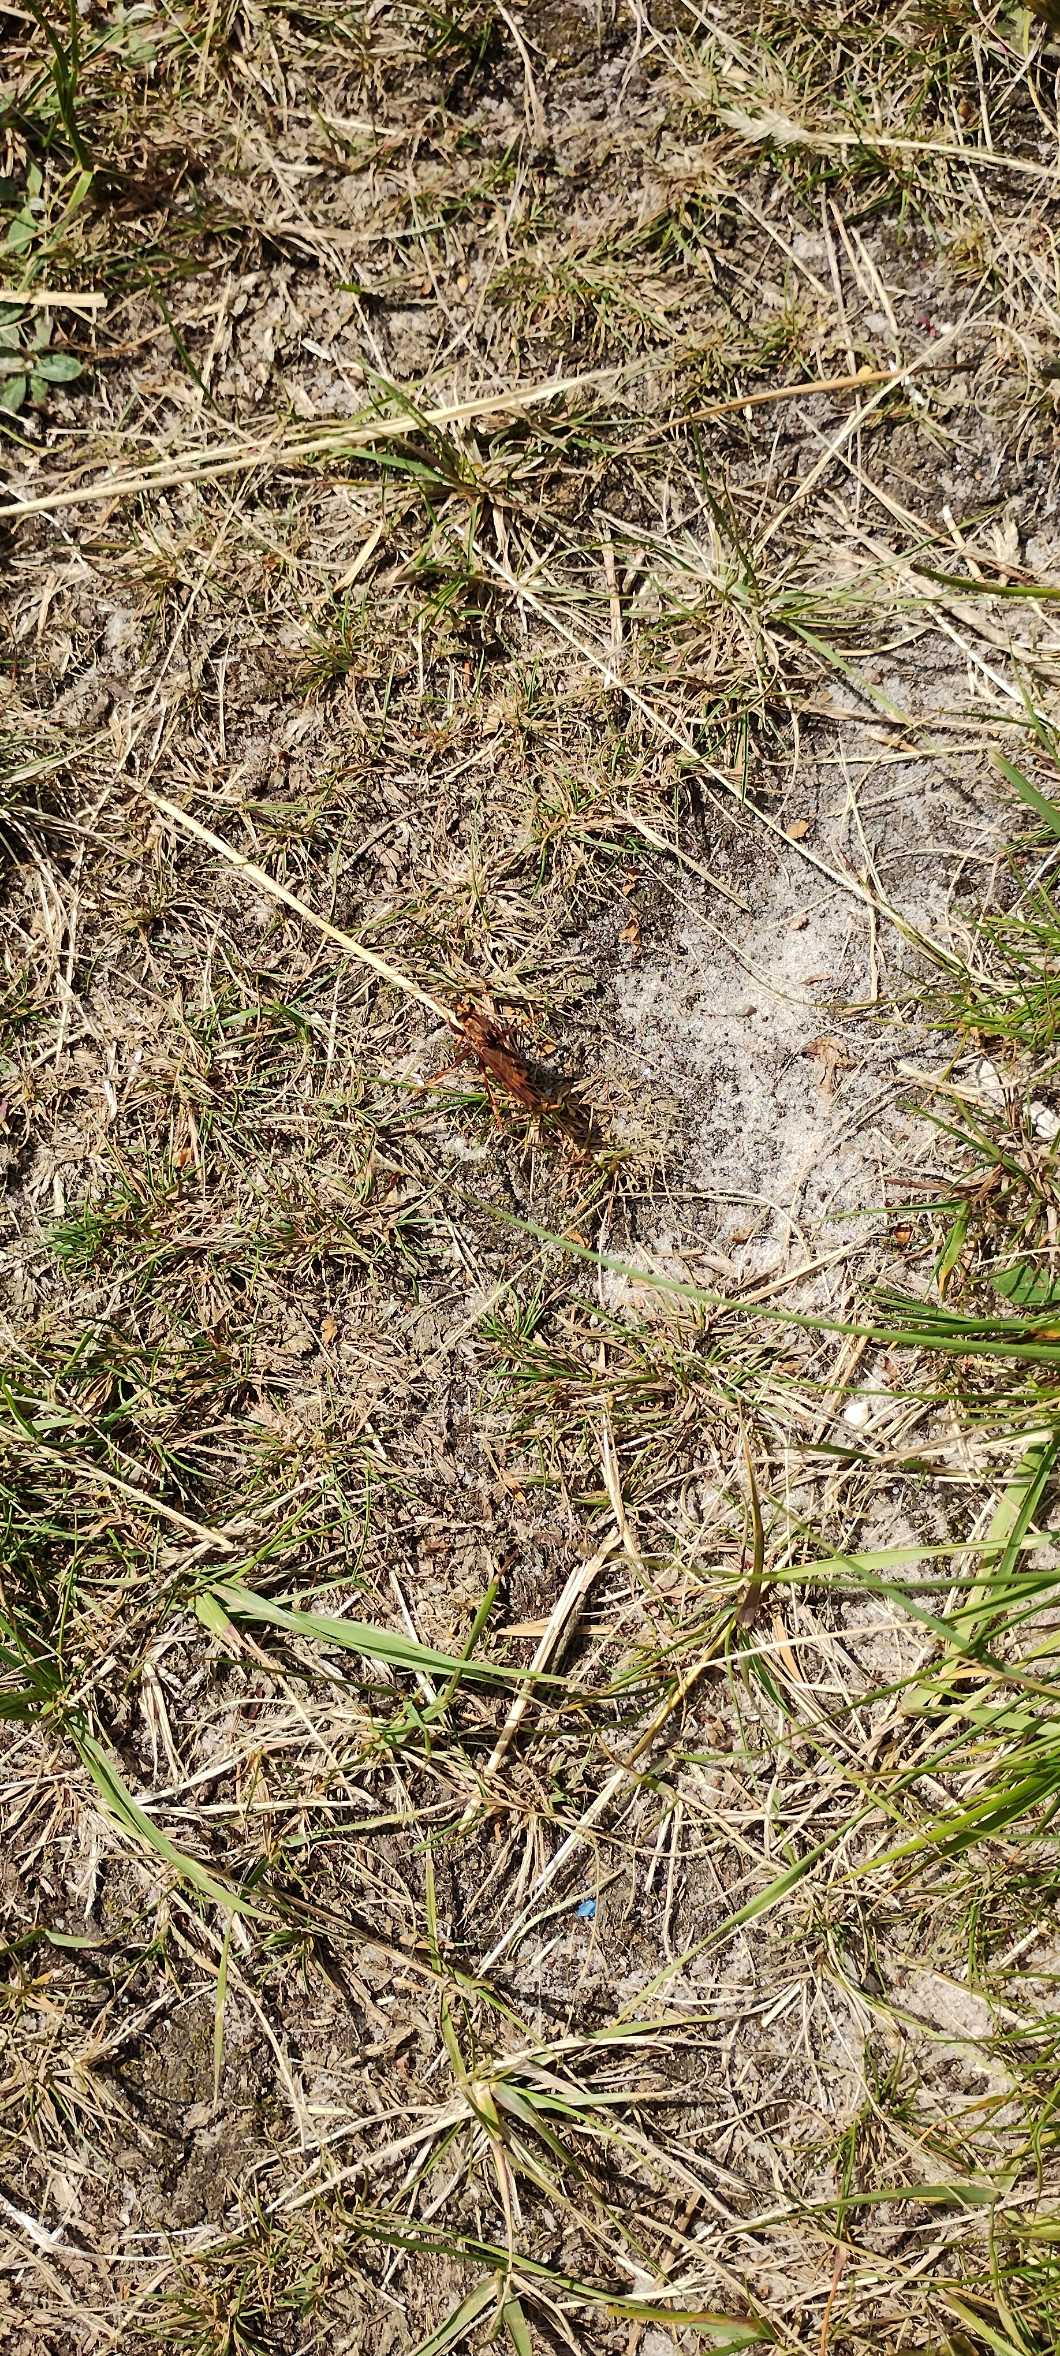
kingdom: Animalia
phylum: Arthropoda
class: Insecta
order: Diptera
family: Asilidae
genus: Asilus
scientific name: Asilus crabroniformis
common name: Stor gødningsrovflue
